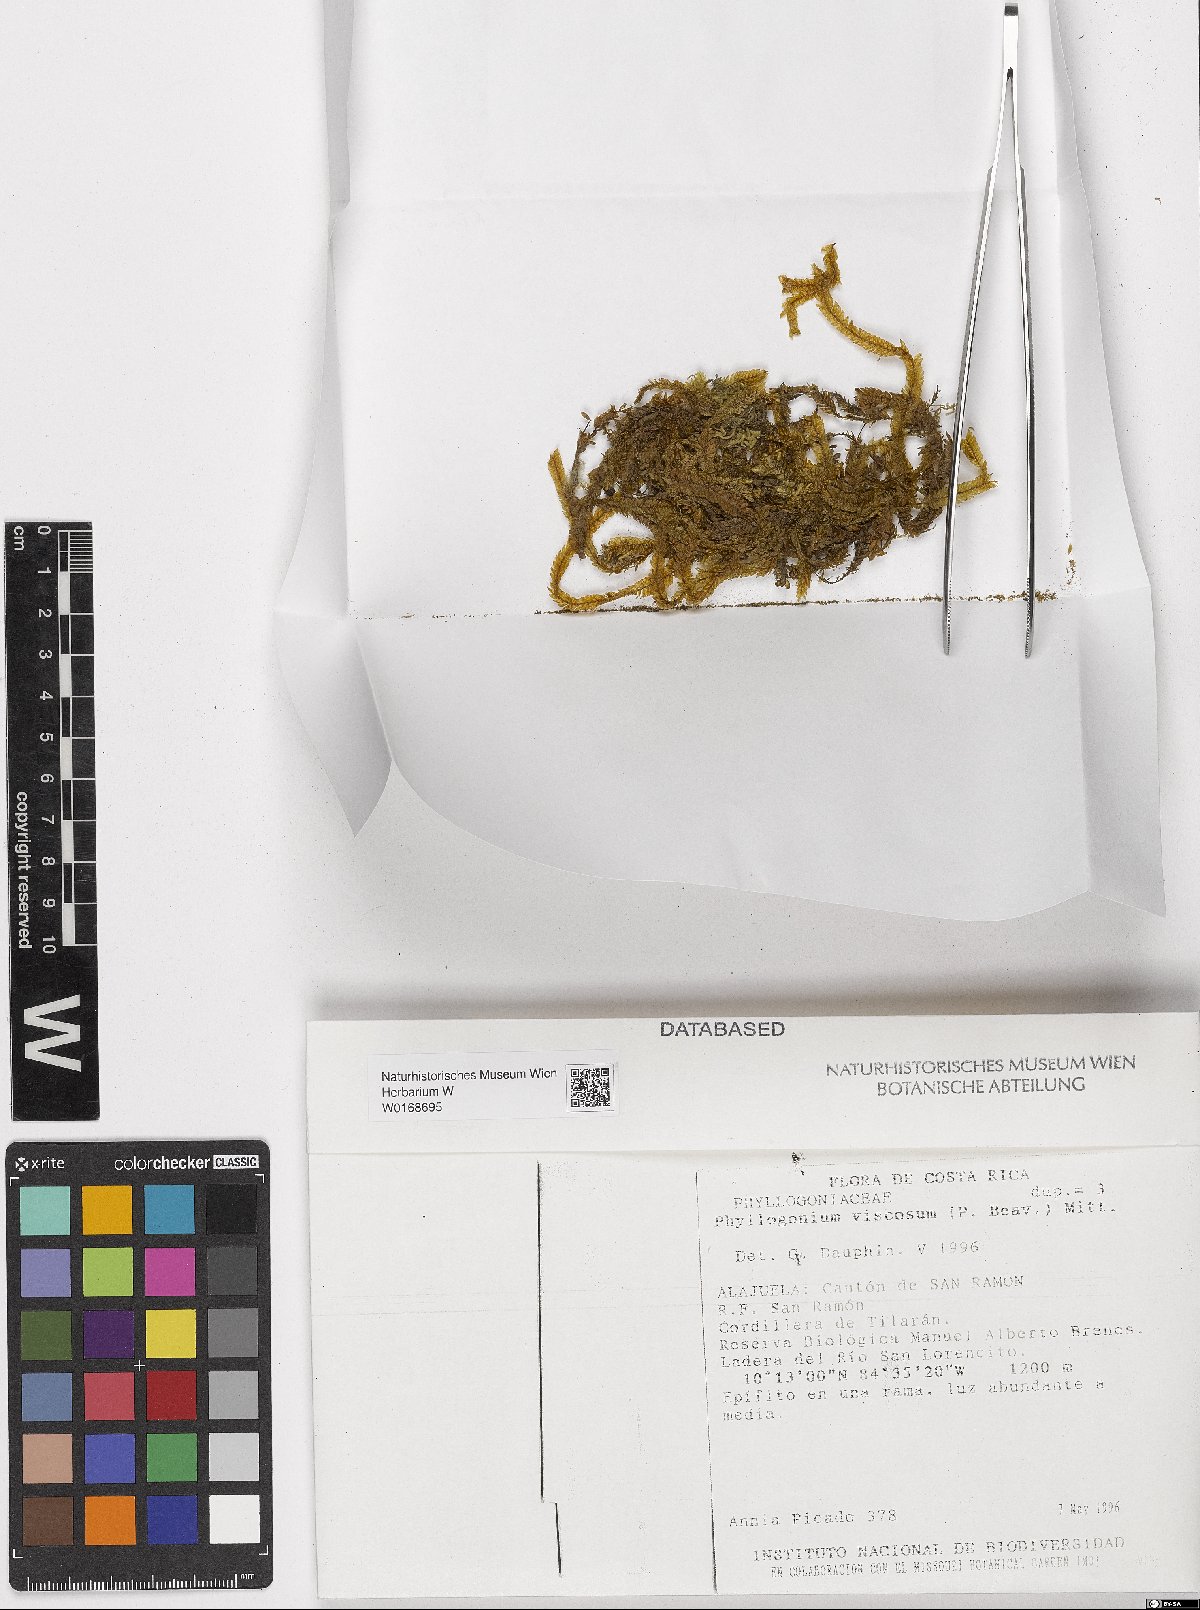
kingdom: Plantae
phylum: Bryophyta
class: Bryopsida
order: Hypnales
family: Phyllogoniaceae
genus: Phyllogonium
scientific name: Phyllogonium viscosum
